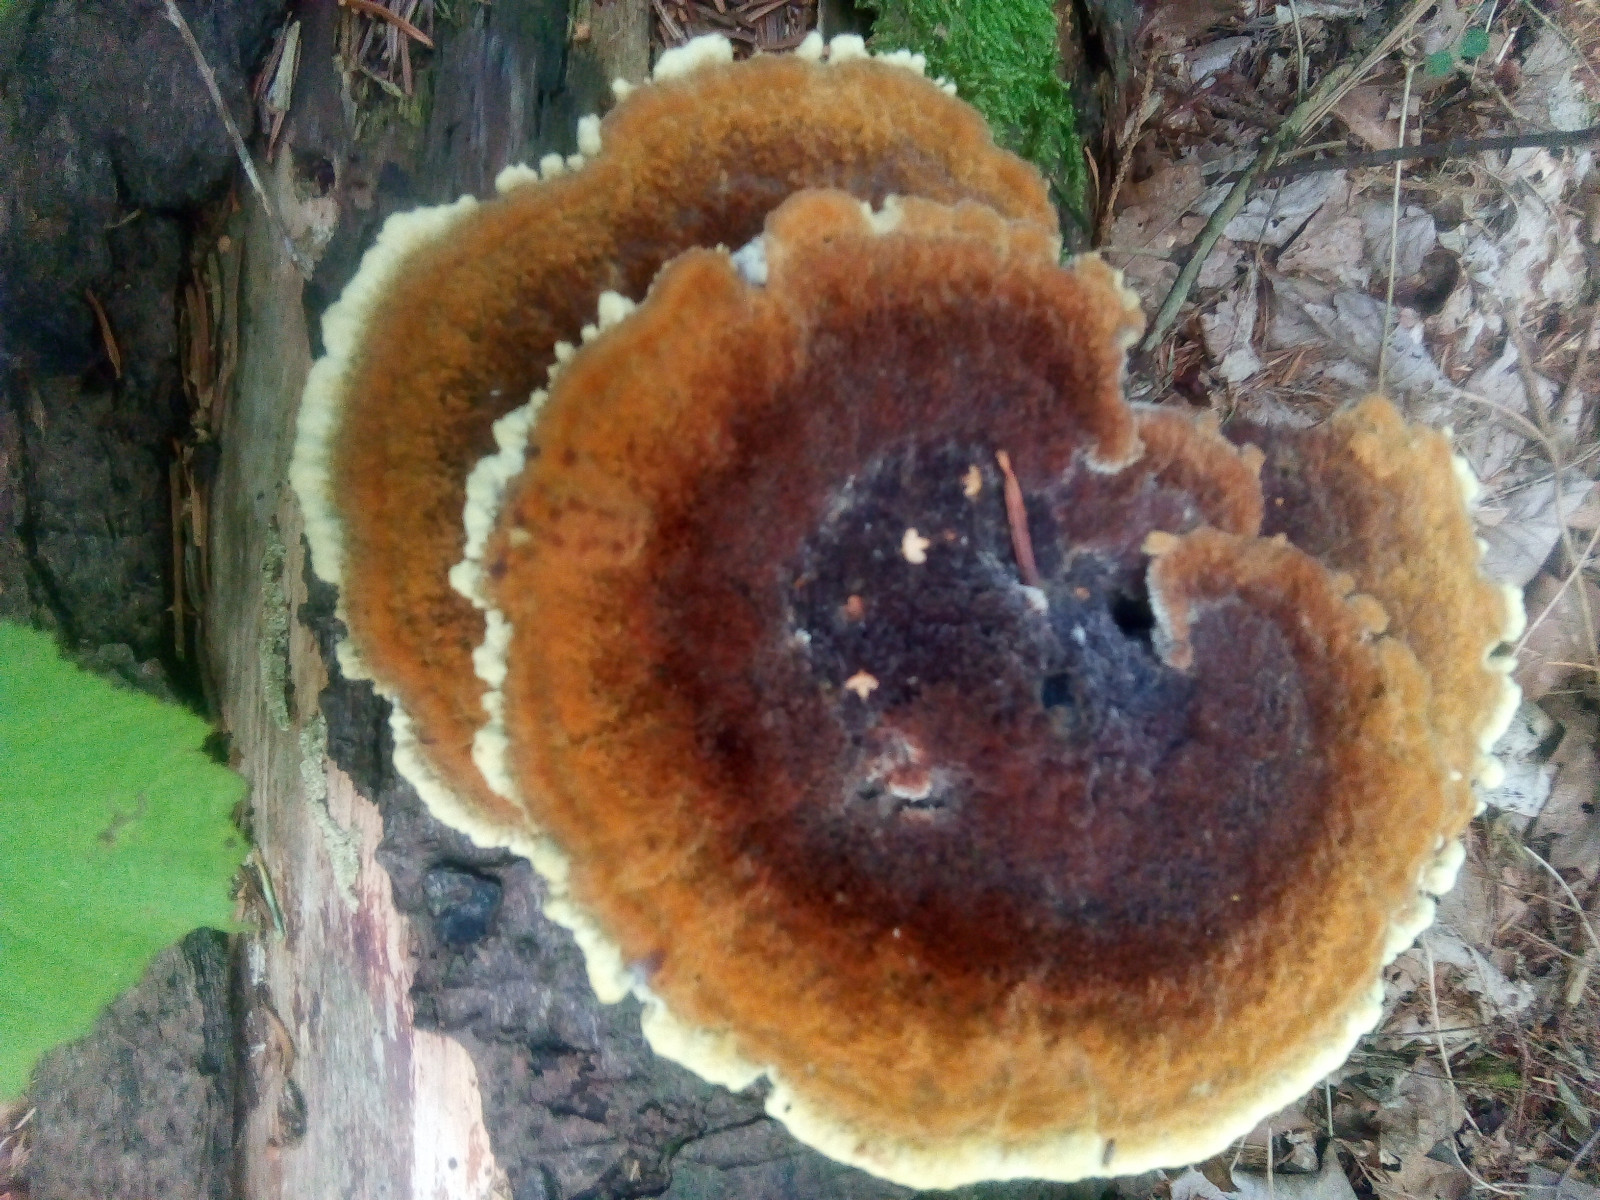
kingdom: Fungi
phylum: Basidiomycota
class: Agaricomycetes
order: Polyporales
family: Laetiporaceae
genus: Phaeolus
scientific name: Phaeolus schweinitzii
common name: brunporesvamp
